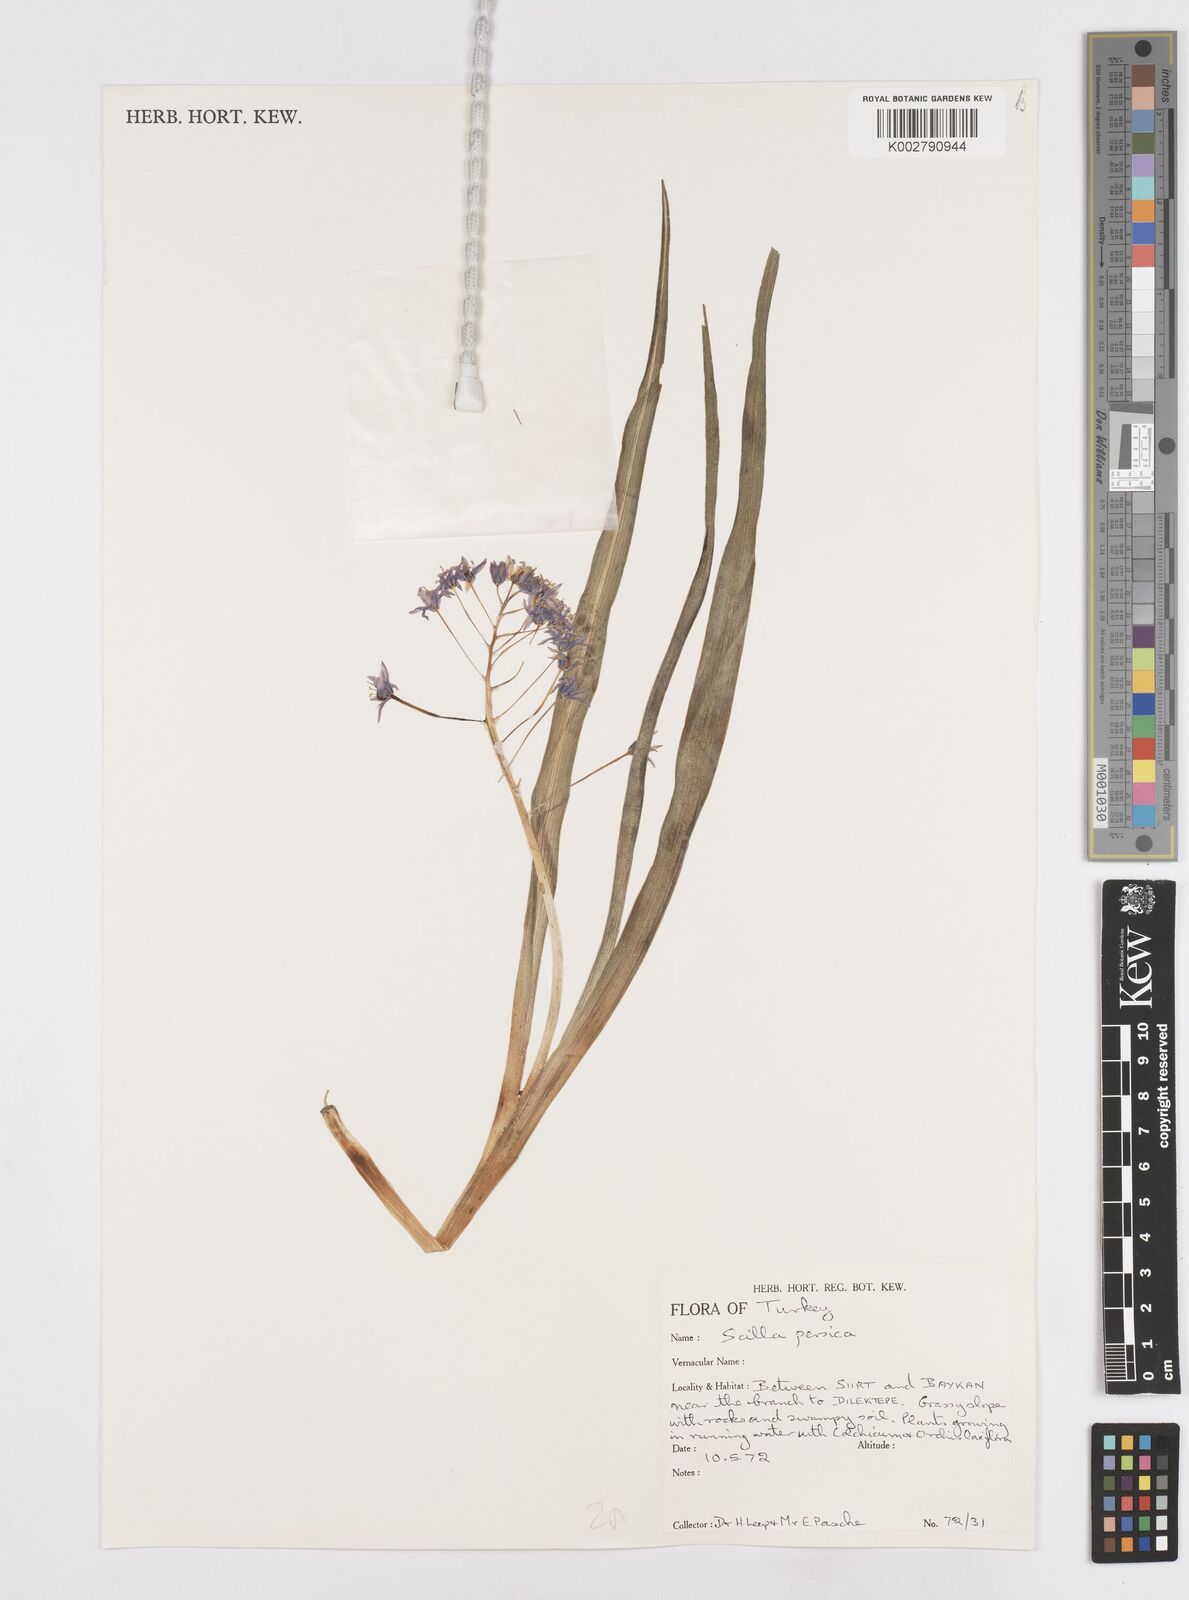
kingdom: Plantae
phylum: Tracheophyta
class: Liliopsida
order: Asparagales
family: Asparagaceae
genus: Zagrosia
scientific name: Zagrosia persica
